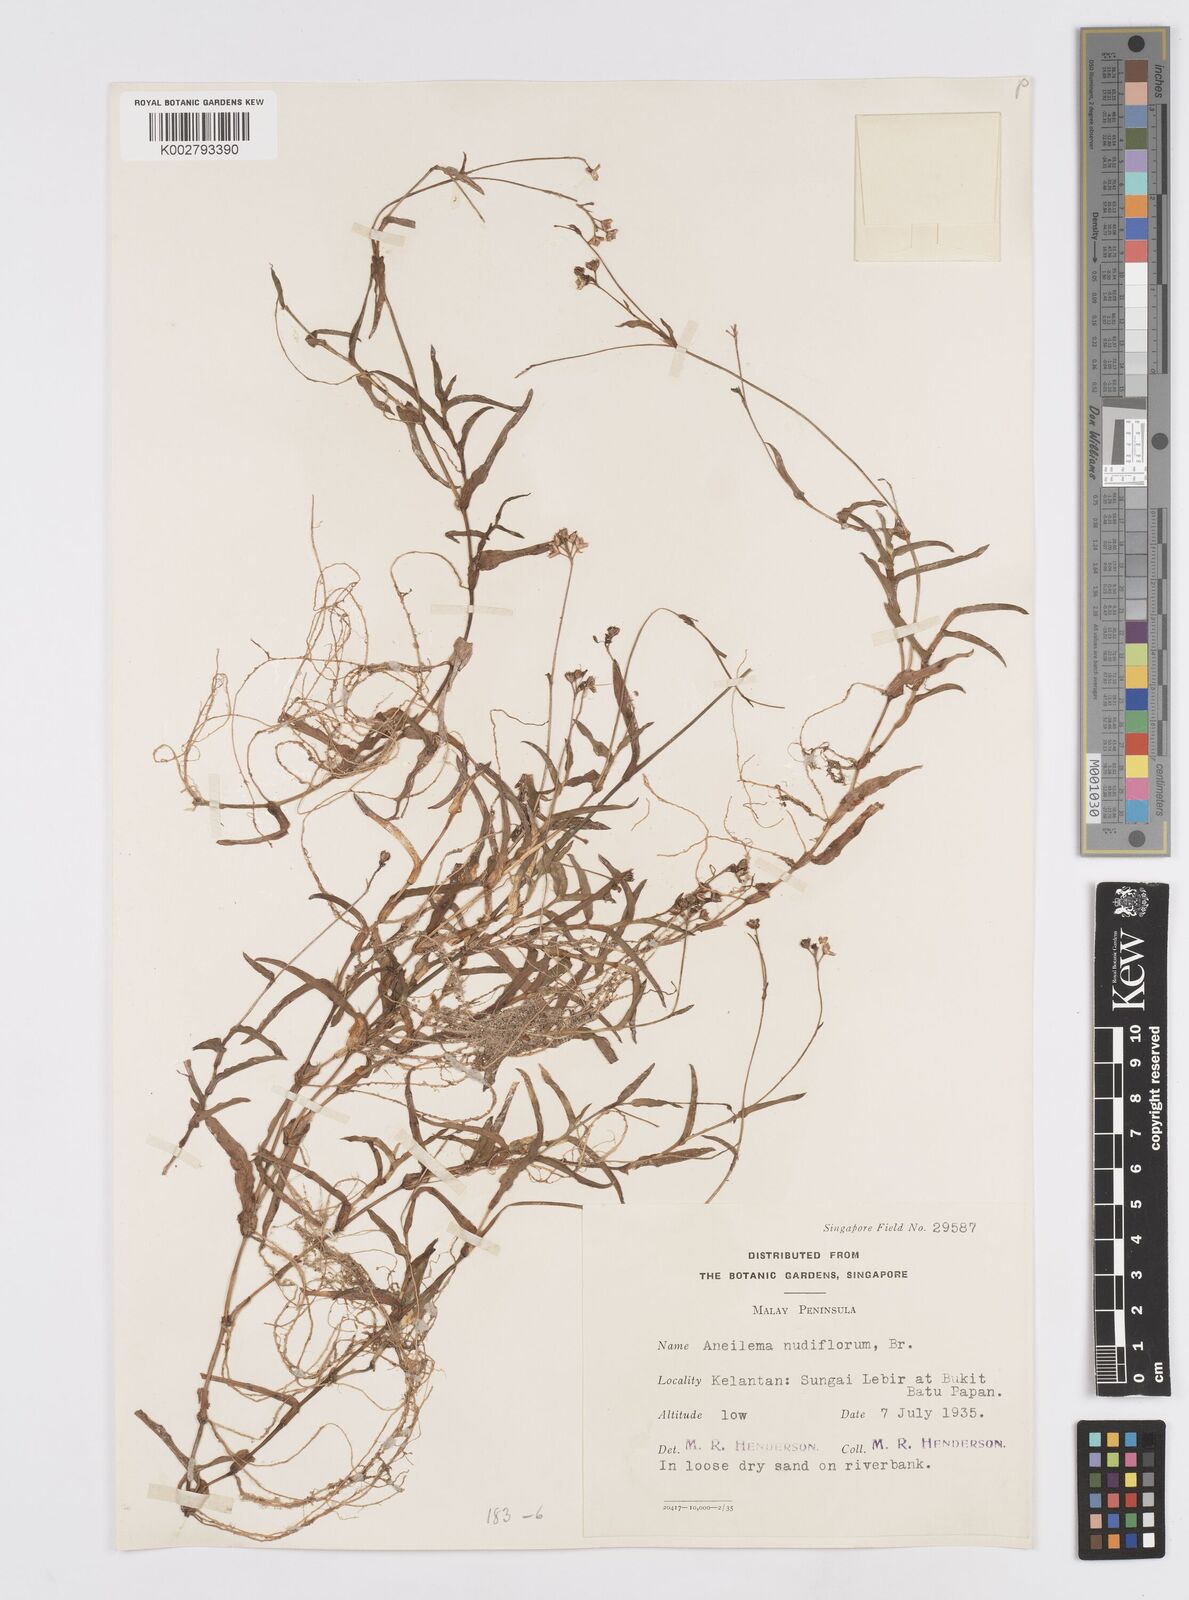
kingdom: Plantae
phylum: Tracheophyta
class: Liliopsida
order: Commelinales
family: Commelinaceae
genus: Murdannia
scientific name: Murdannia
